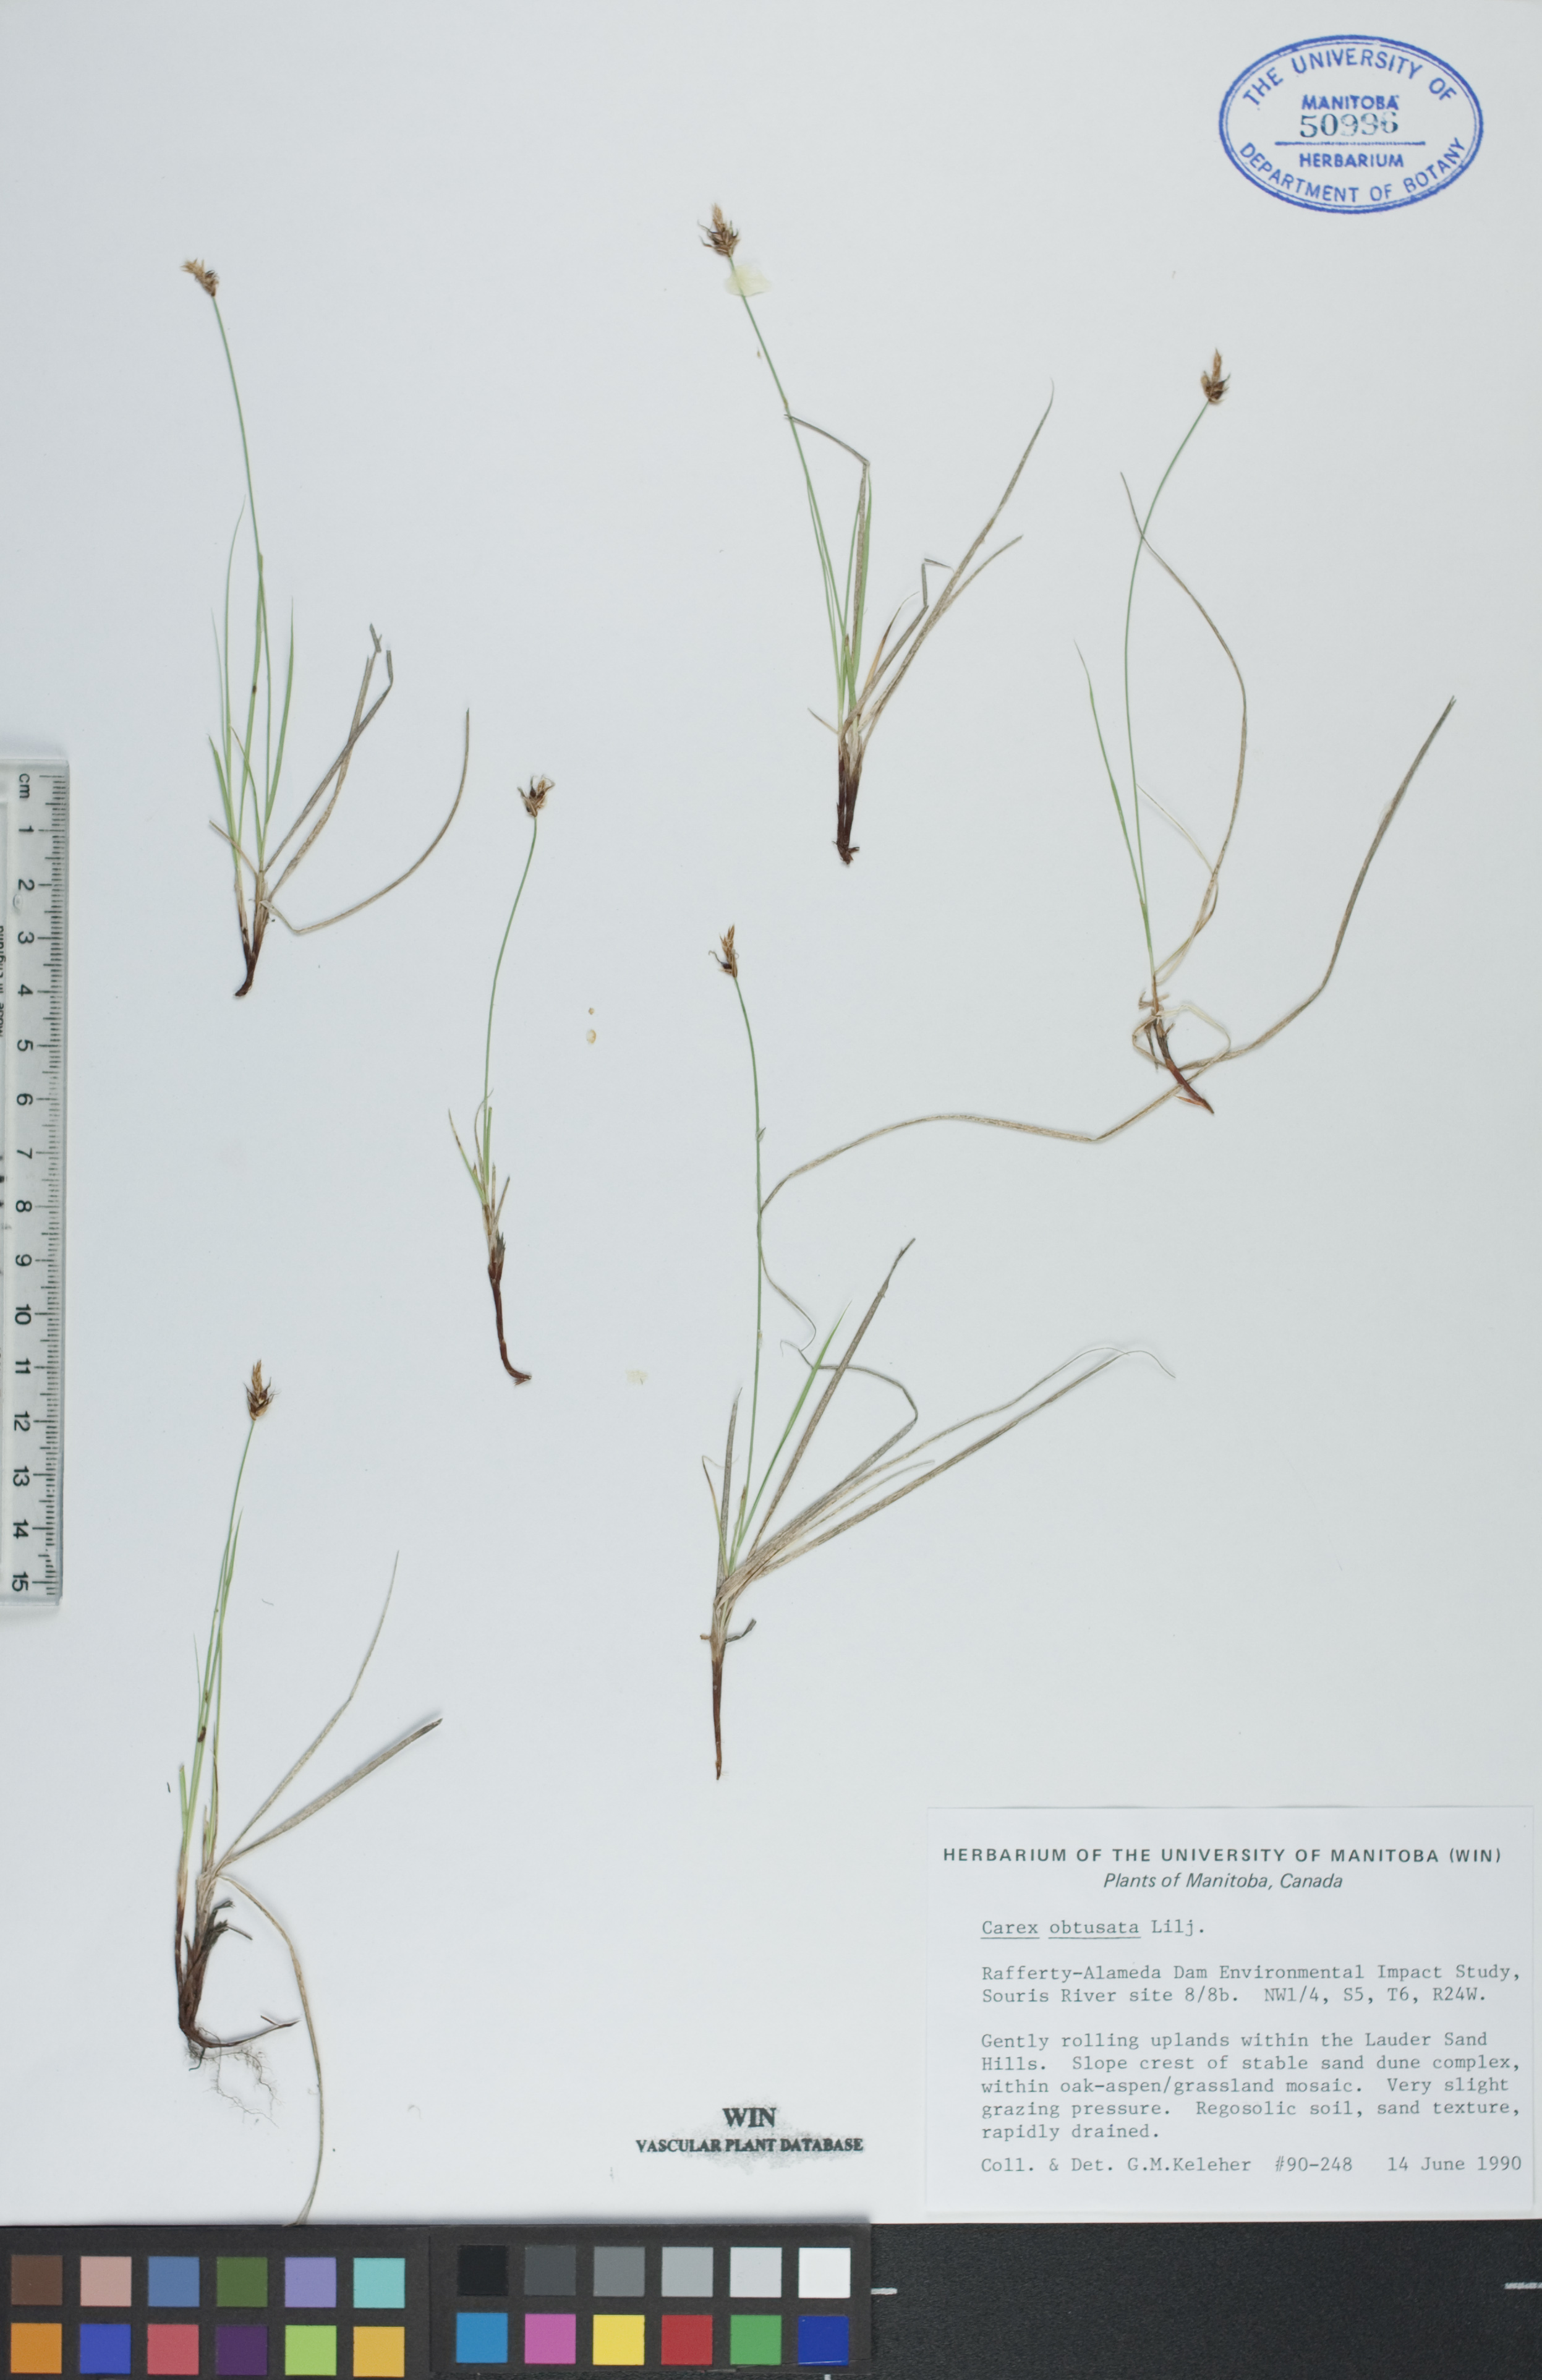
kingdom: Plantae
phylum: Tracheophyta
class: Liliopsida
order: Poales
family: Cyperaceae
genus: Carex
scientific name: Carex obtusata
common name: Blunt sedge
